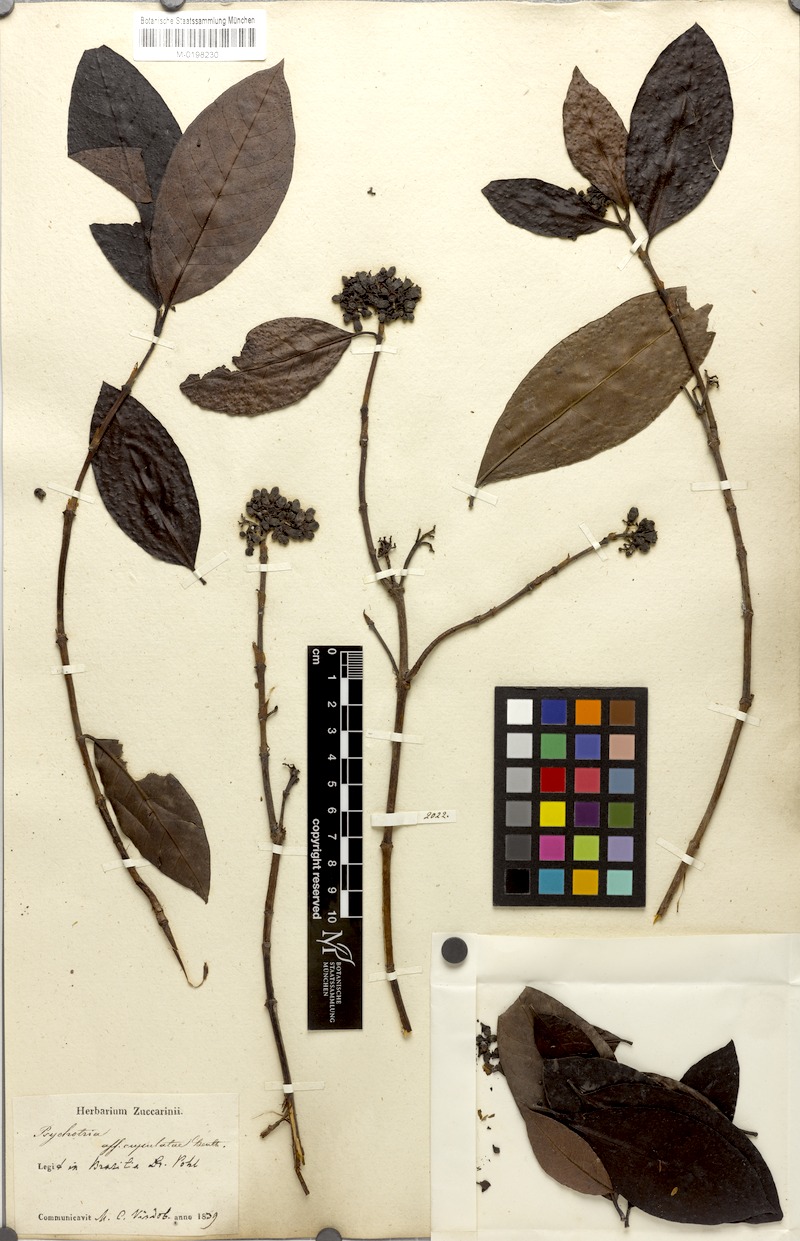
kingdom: Plantae
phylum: Tracheophyta
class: Magnoliopsida
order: Gentianales
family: Rubiaceae
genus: Melanopsidium
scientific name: Melanopsidium nigrum
